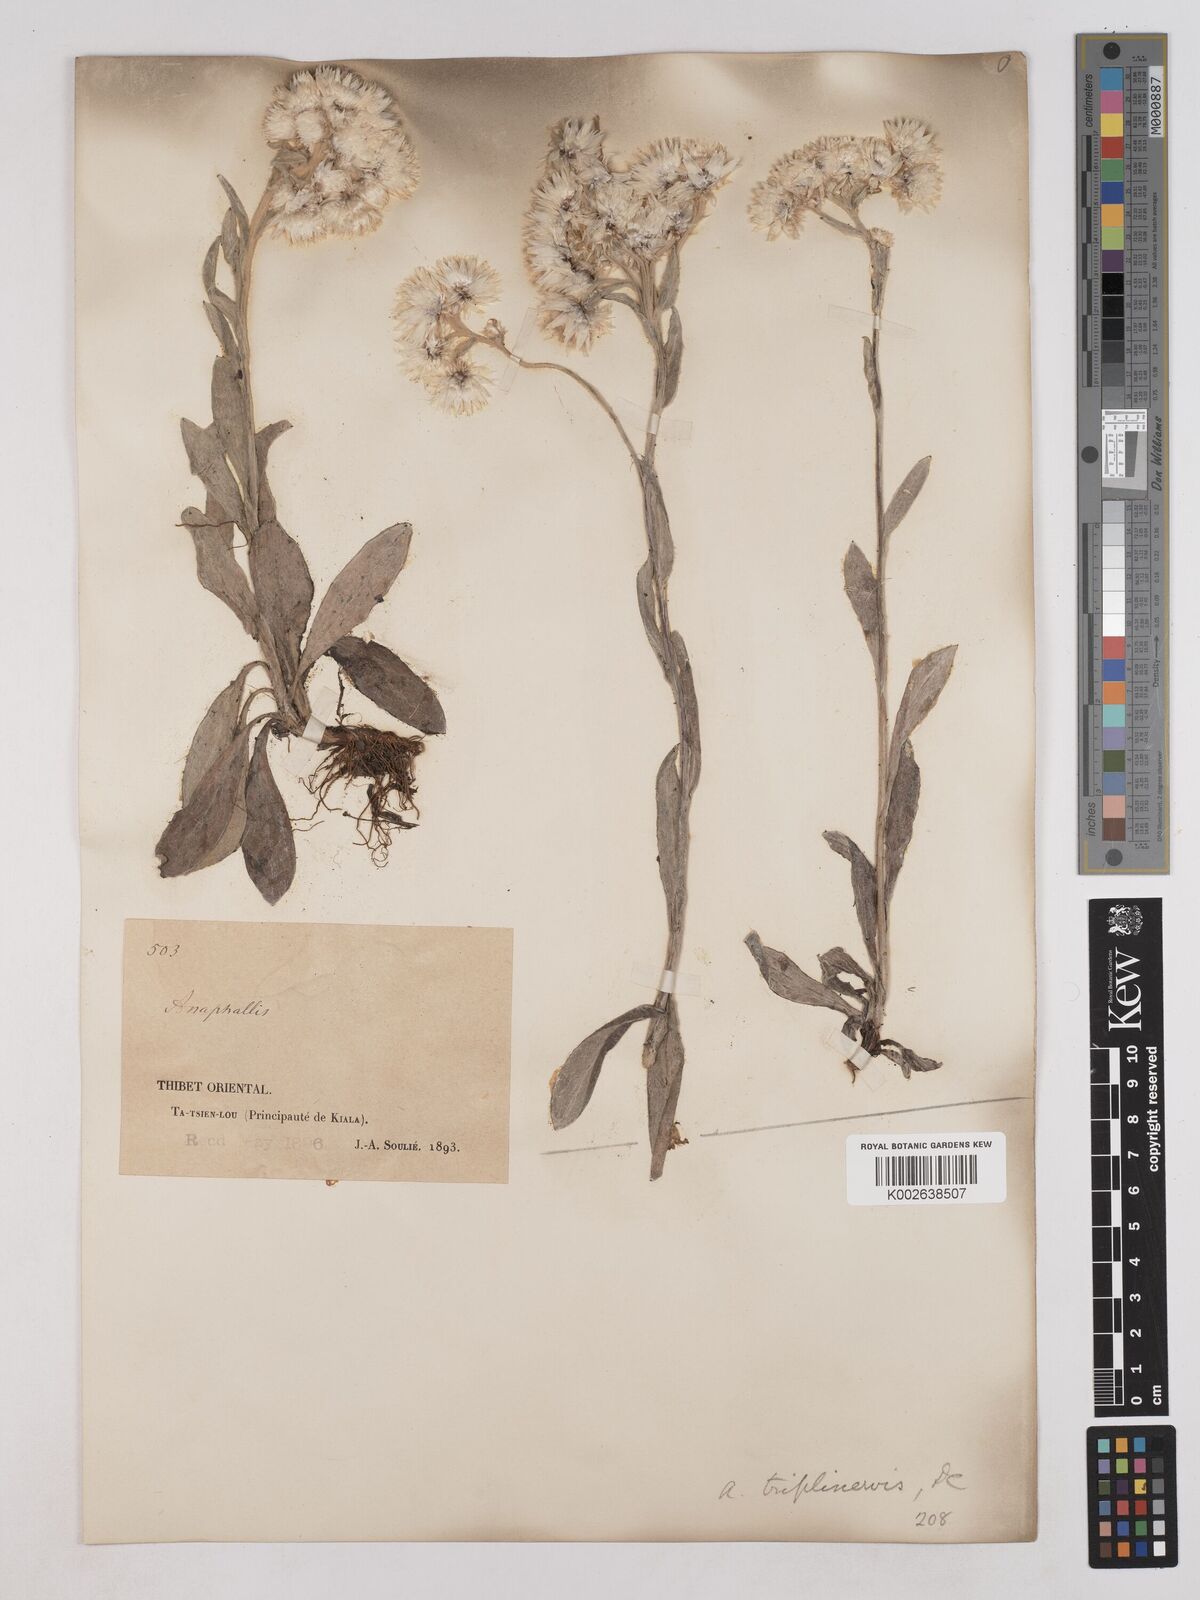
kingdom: Plantae
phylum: Tracheophyta
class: Magnoliopsida
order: Asterales
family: Asteraceae
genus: Anaphalis
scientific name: Anaphalis nepalensis
